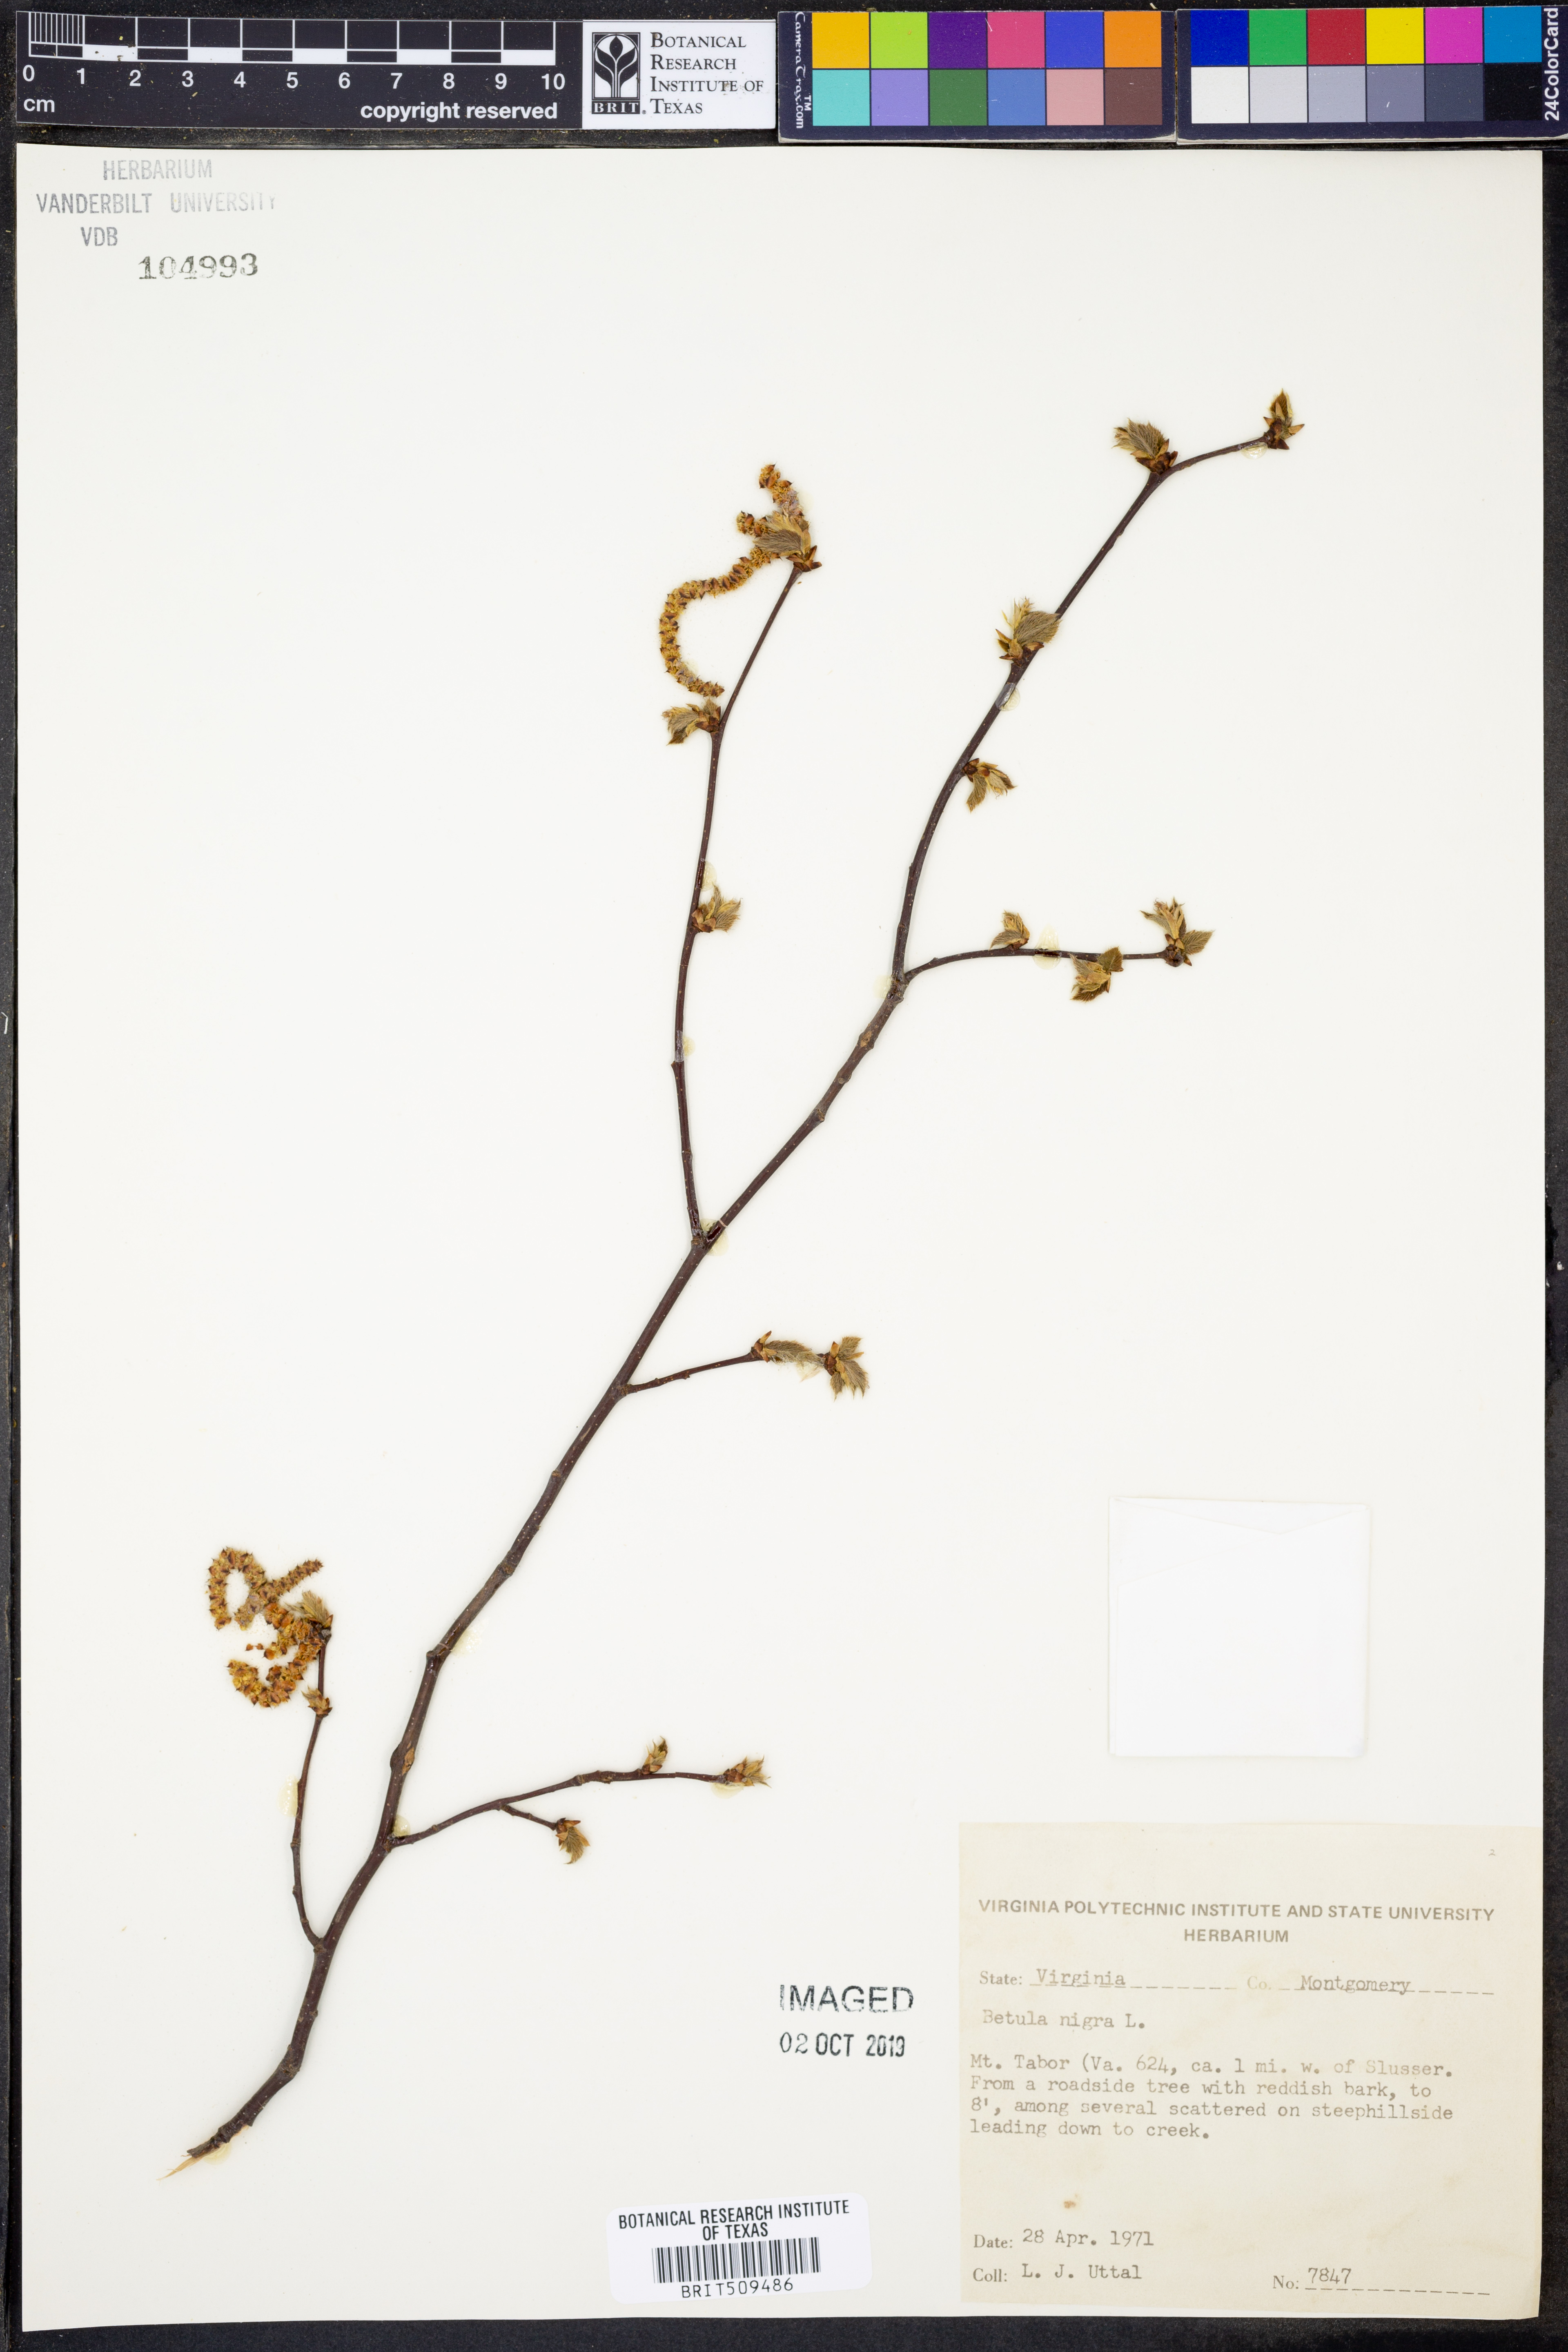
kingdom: Plantae
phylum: Tracheophyta
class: Magnoliopsida
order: Fagales
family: Betulaceae
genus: Betula
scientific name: Betula nigra
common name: Black birch
